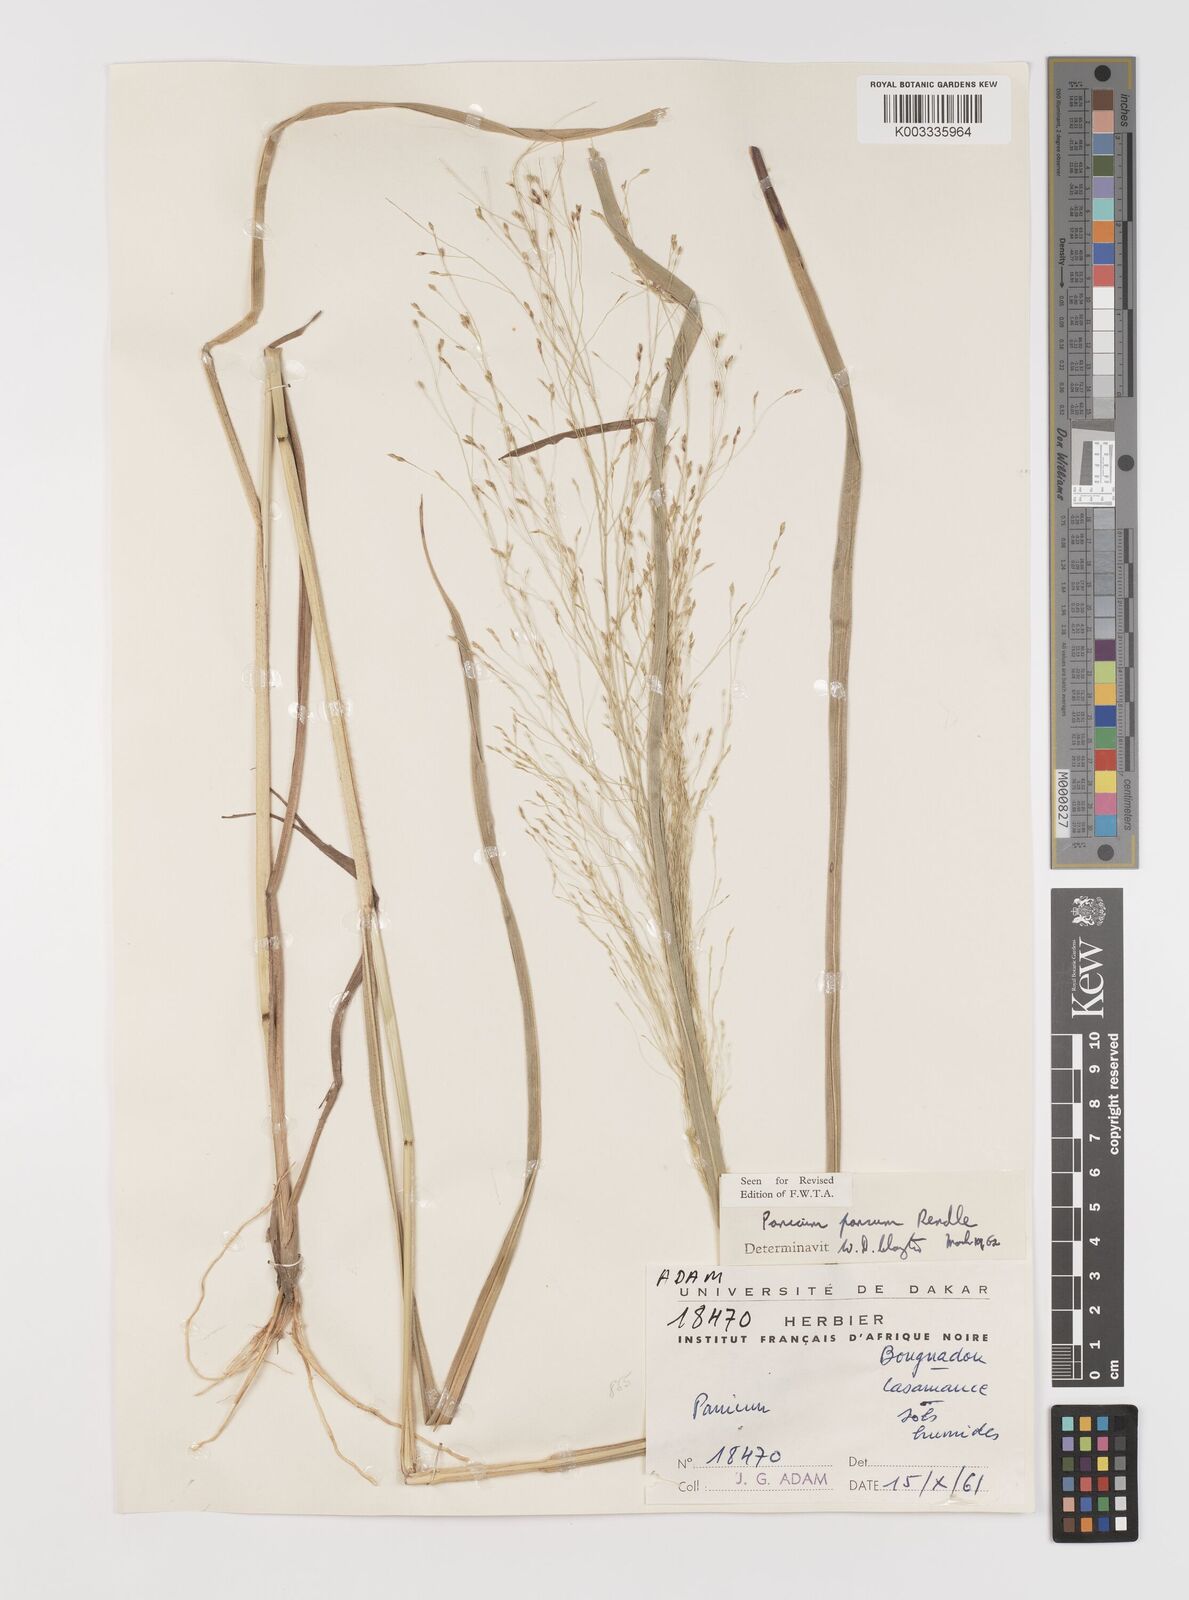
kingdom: Plantae
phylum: Tracheophyta
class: Liliopsida
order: Poales
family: Poaceae
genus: Panicum
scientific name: Panicum pansum
